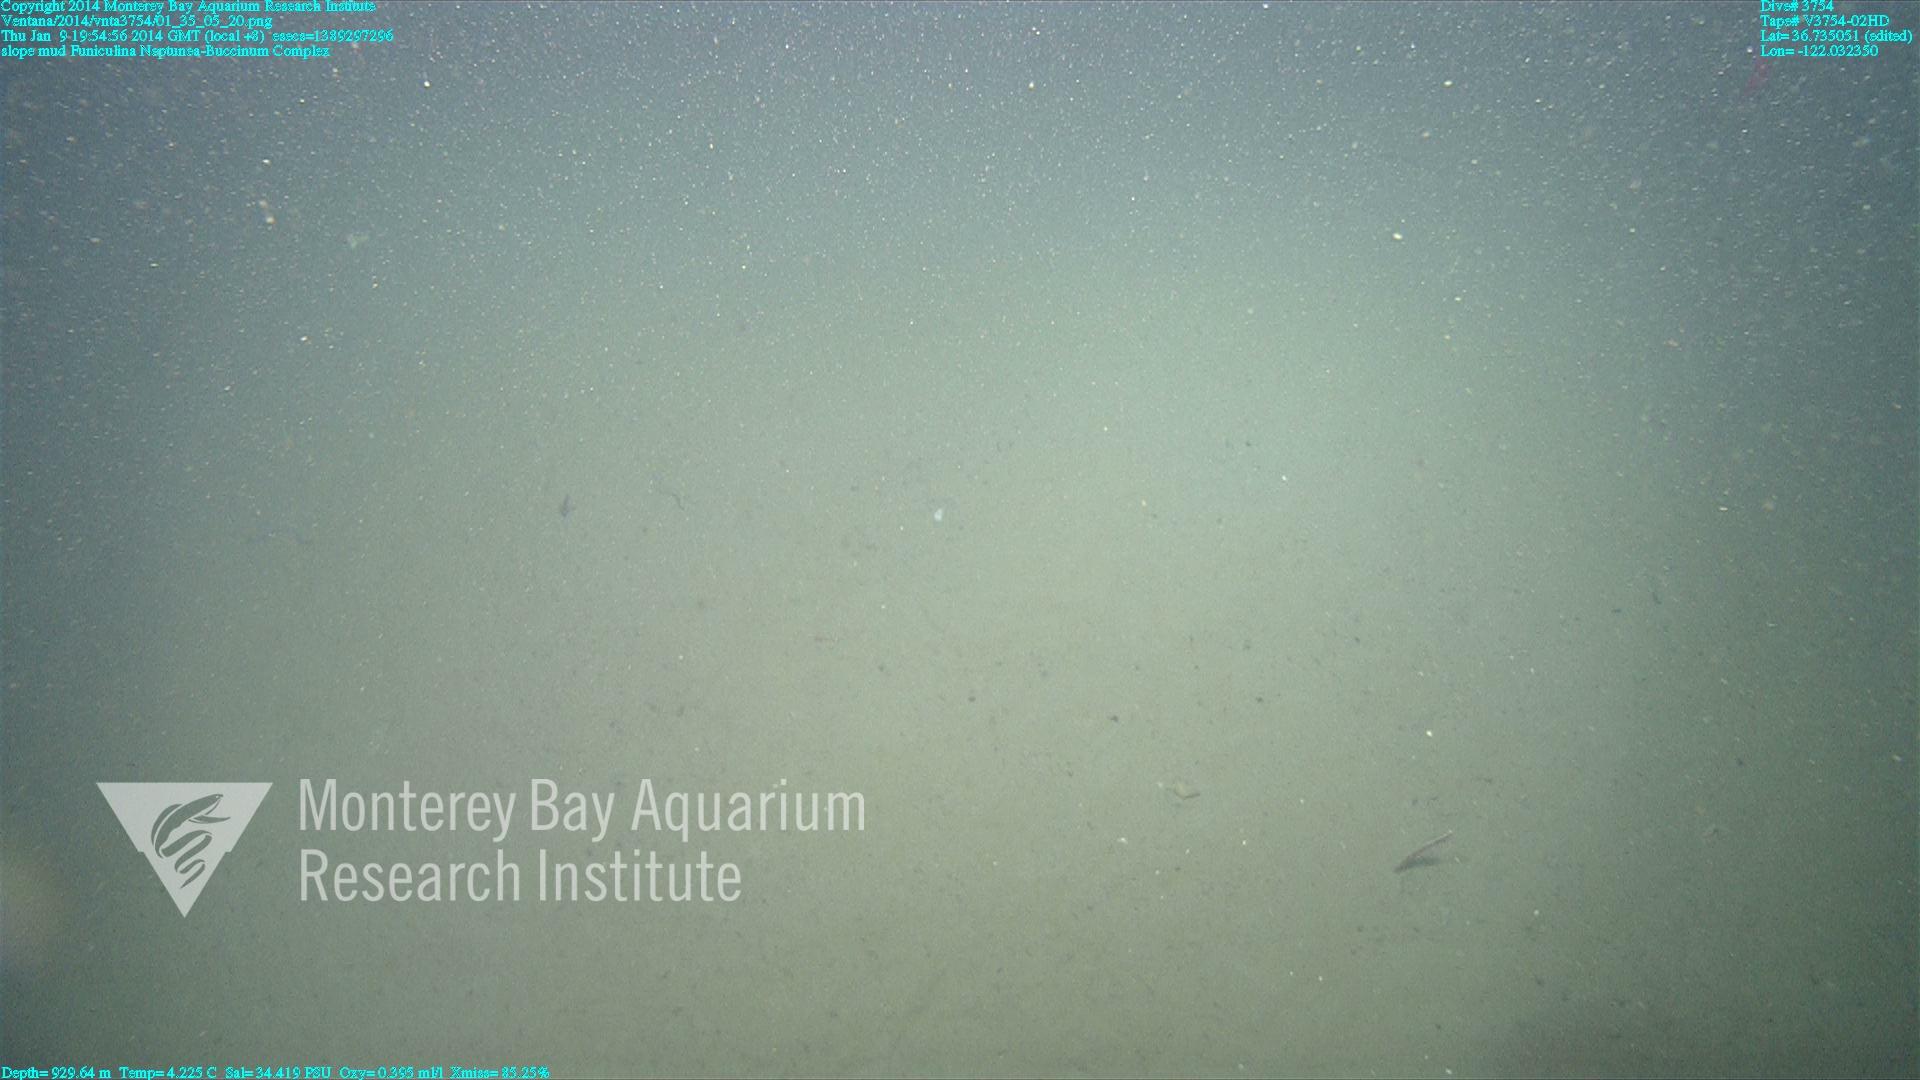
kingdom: Animalia
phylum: Cnidaria
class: Anthozoa
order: Scleralcyonacea
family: Funiculinidae
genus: Funiculina
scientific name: Funiculina
